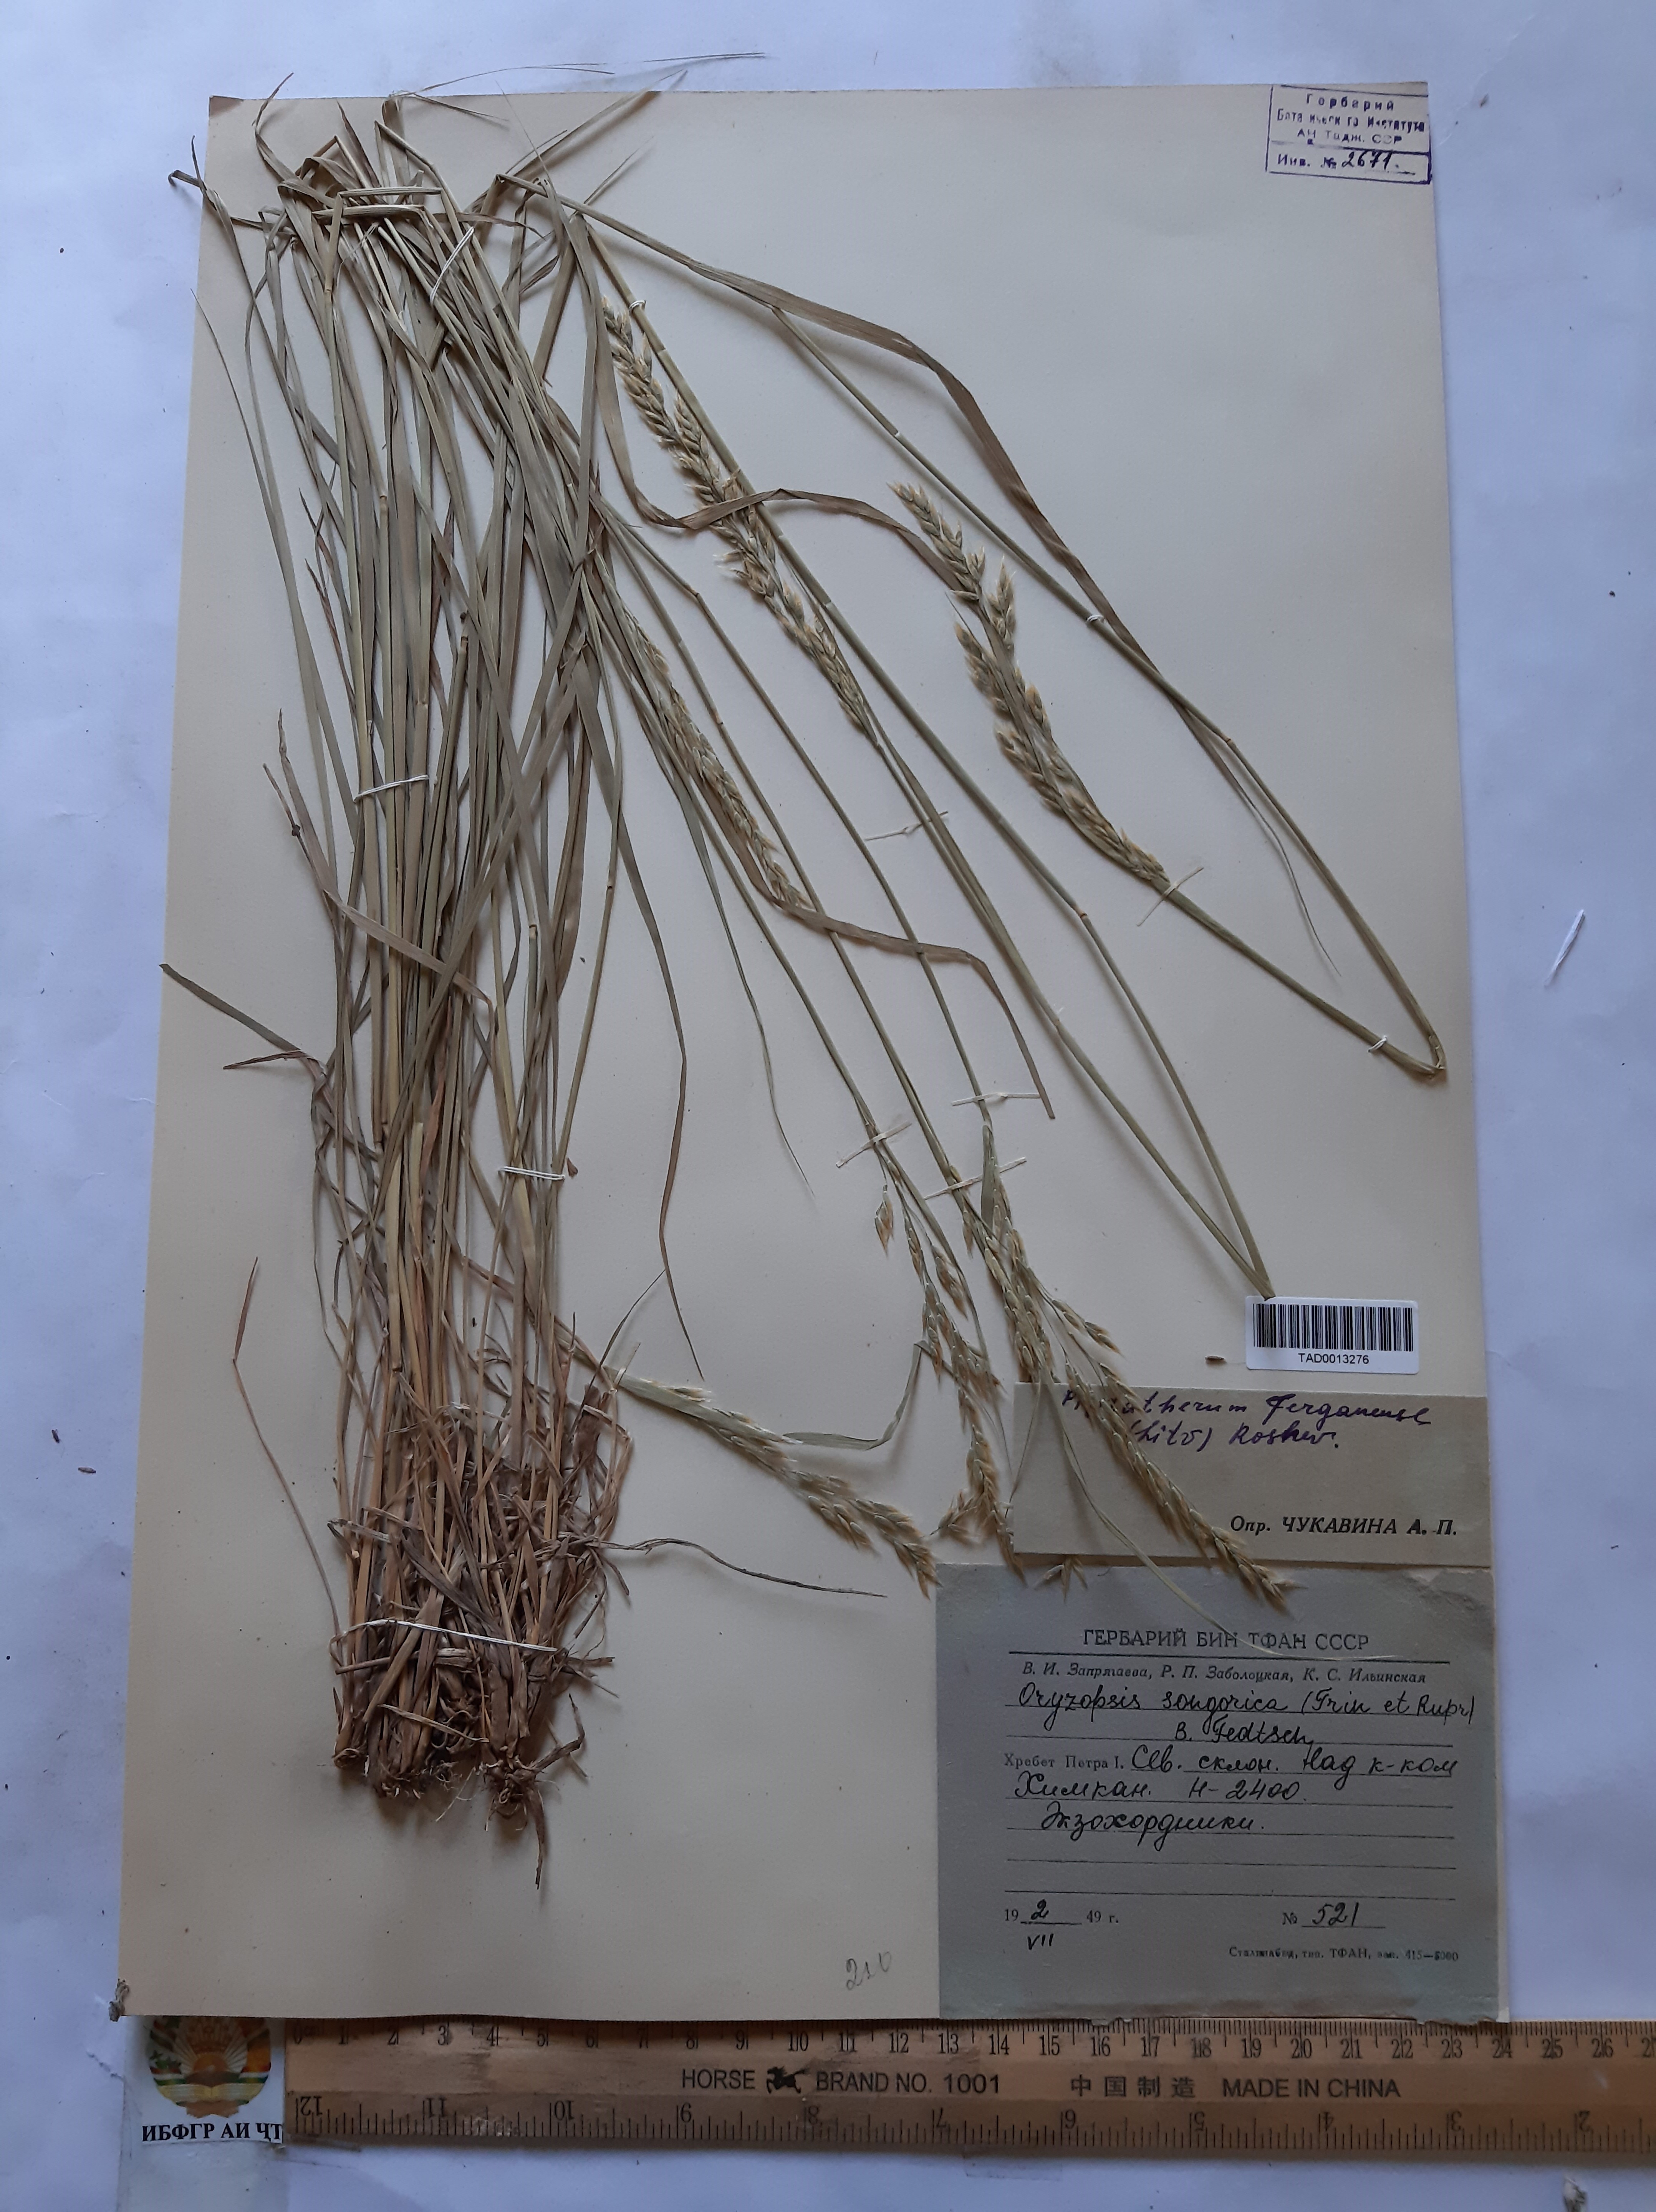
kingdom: Plantae
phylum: Tracheophyta
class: Liliopsida
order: Poales
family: Poaceae
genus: Piptatherum
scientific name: Piptatherum ferganense
